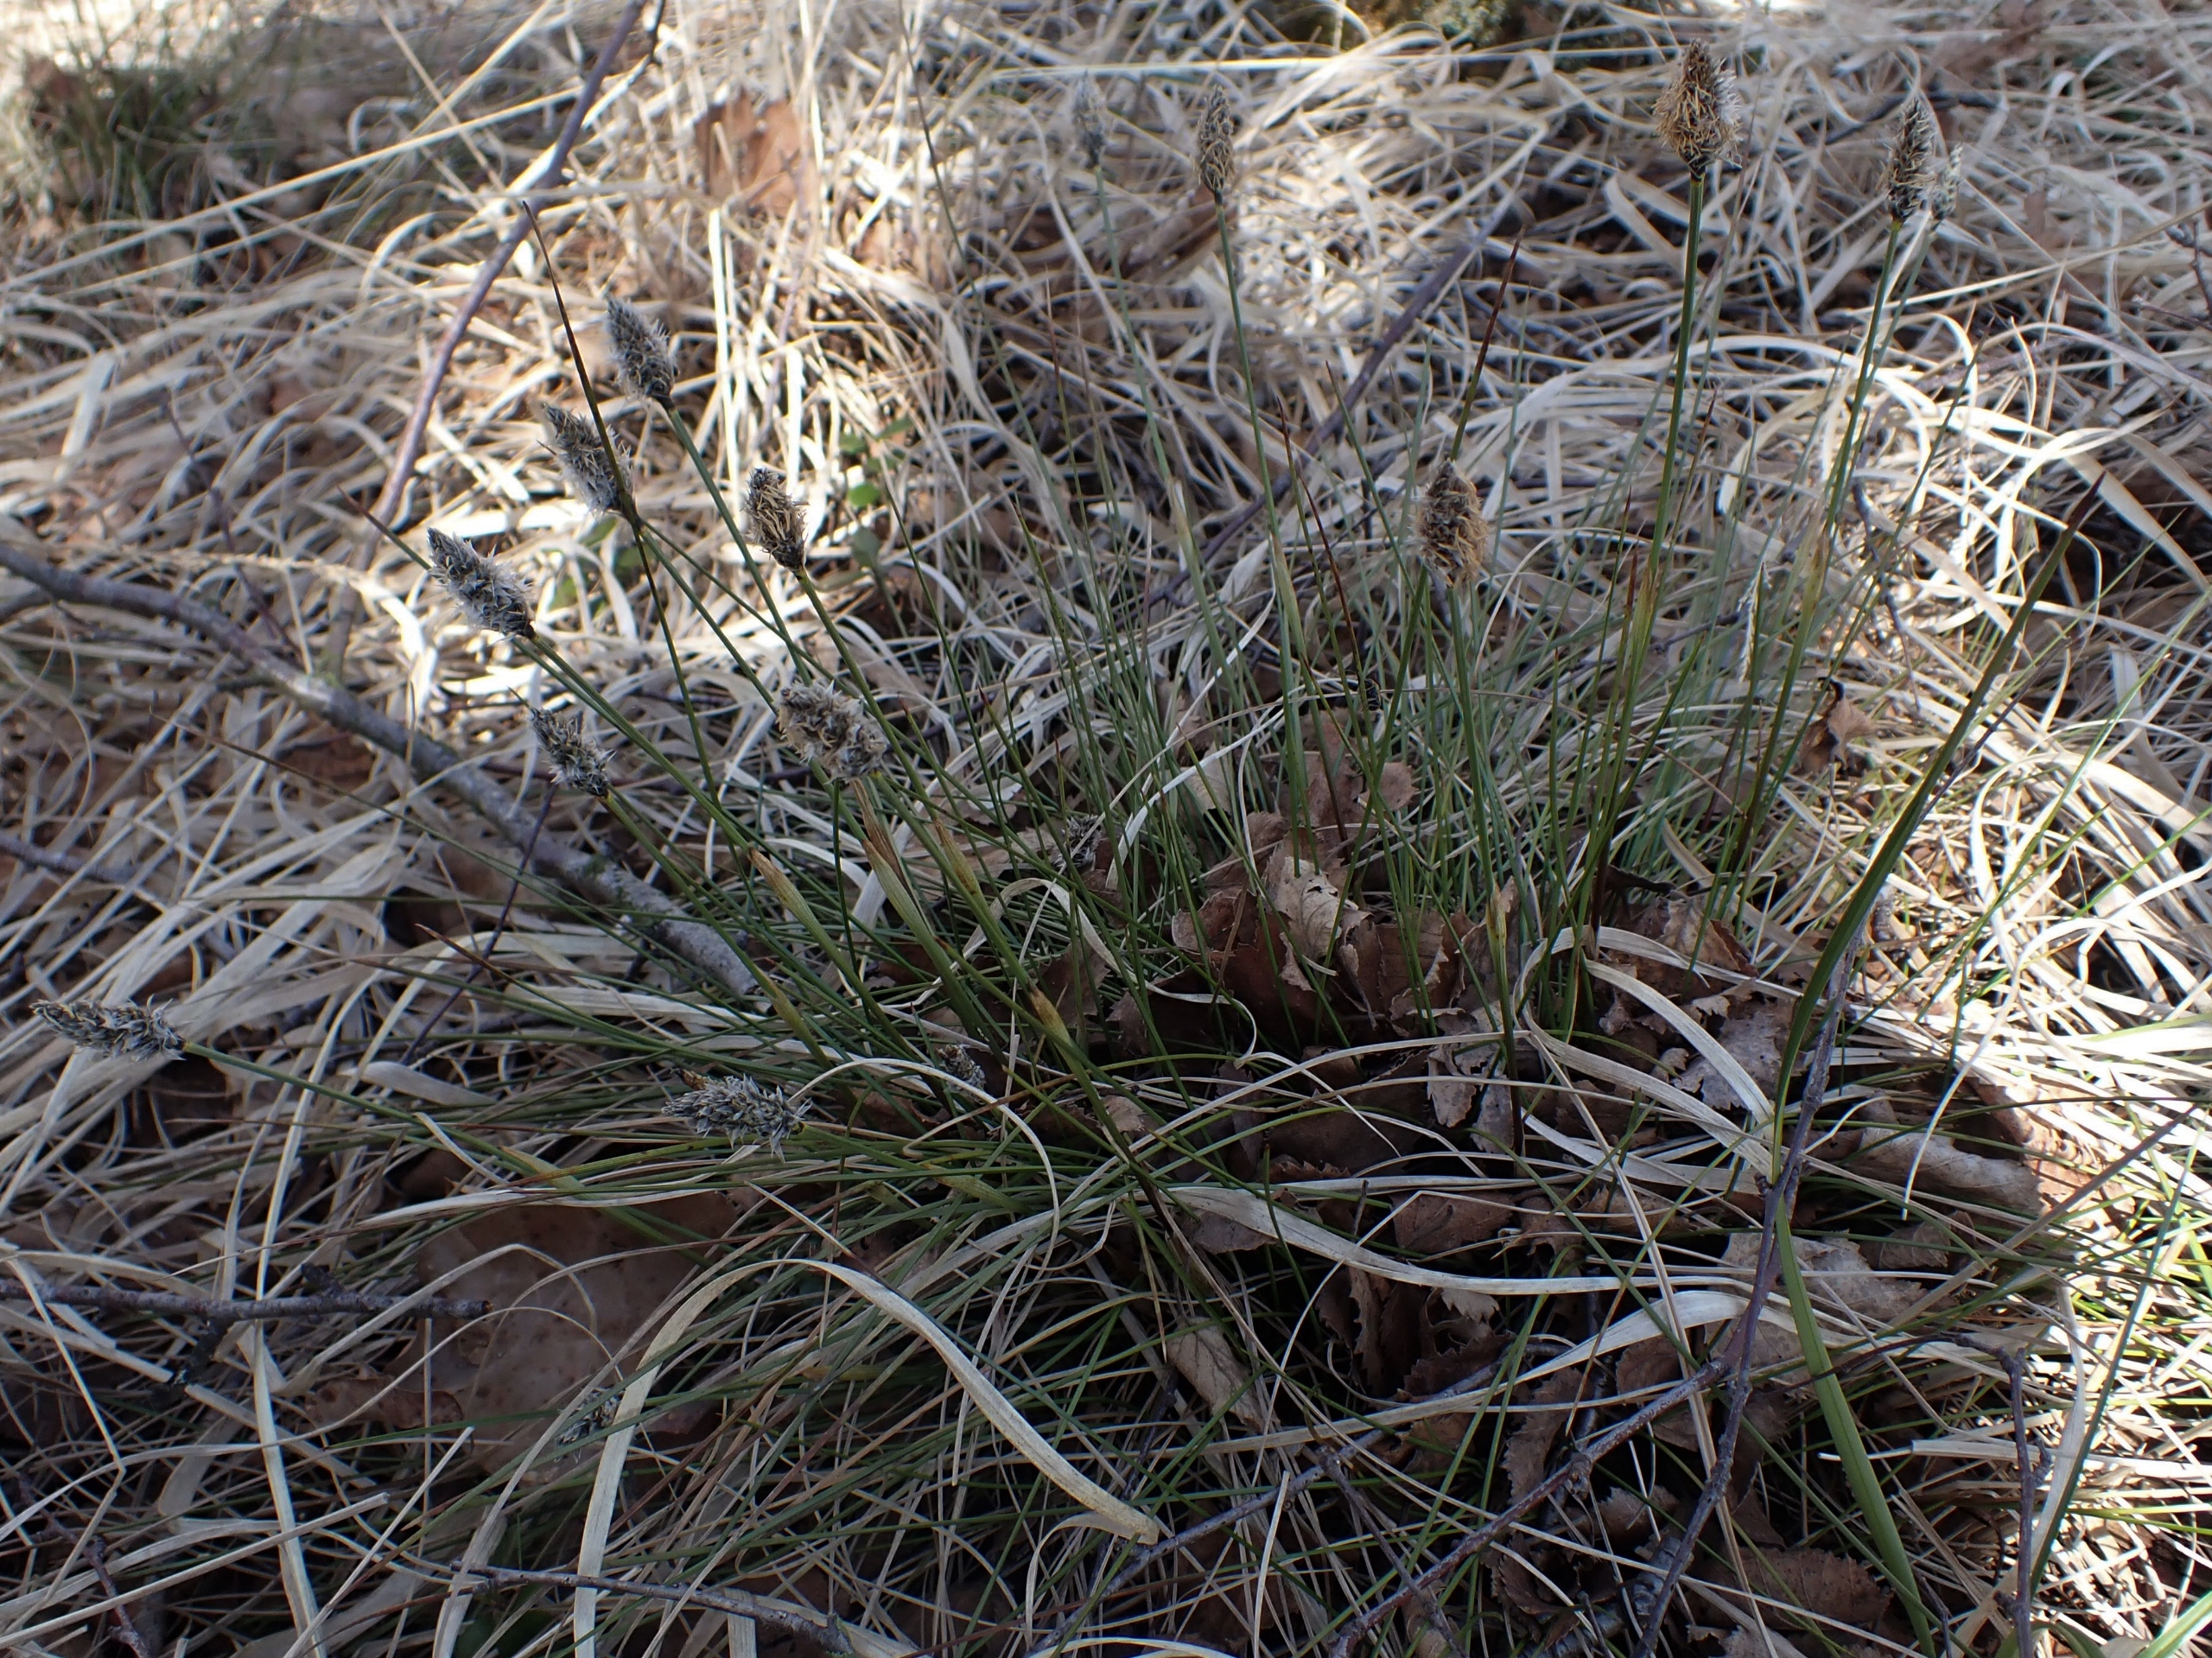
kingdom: Plantae
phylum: Tracheophyta
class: Liliopsida
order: Poales
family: Cyperaceae
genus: Eriophorum
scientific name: Eriophorum vaginatum
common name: Tue-kæruld
